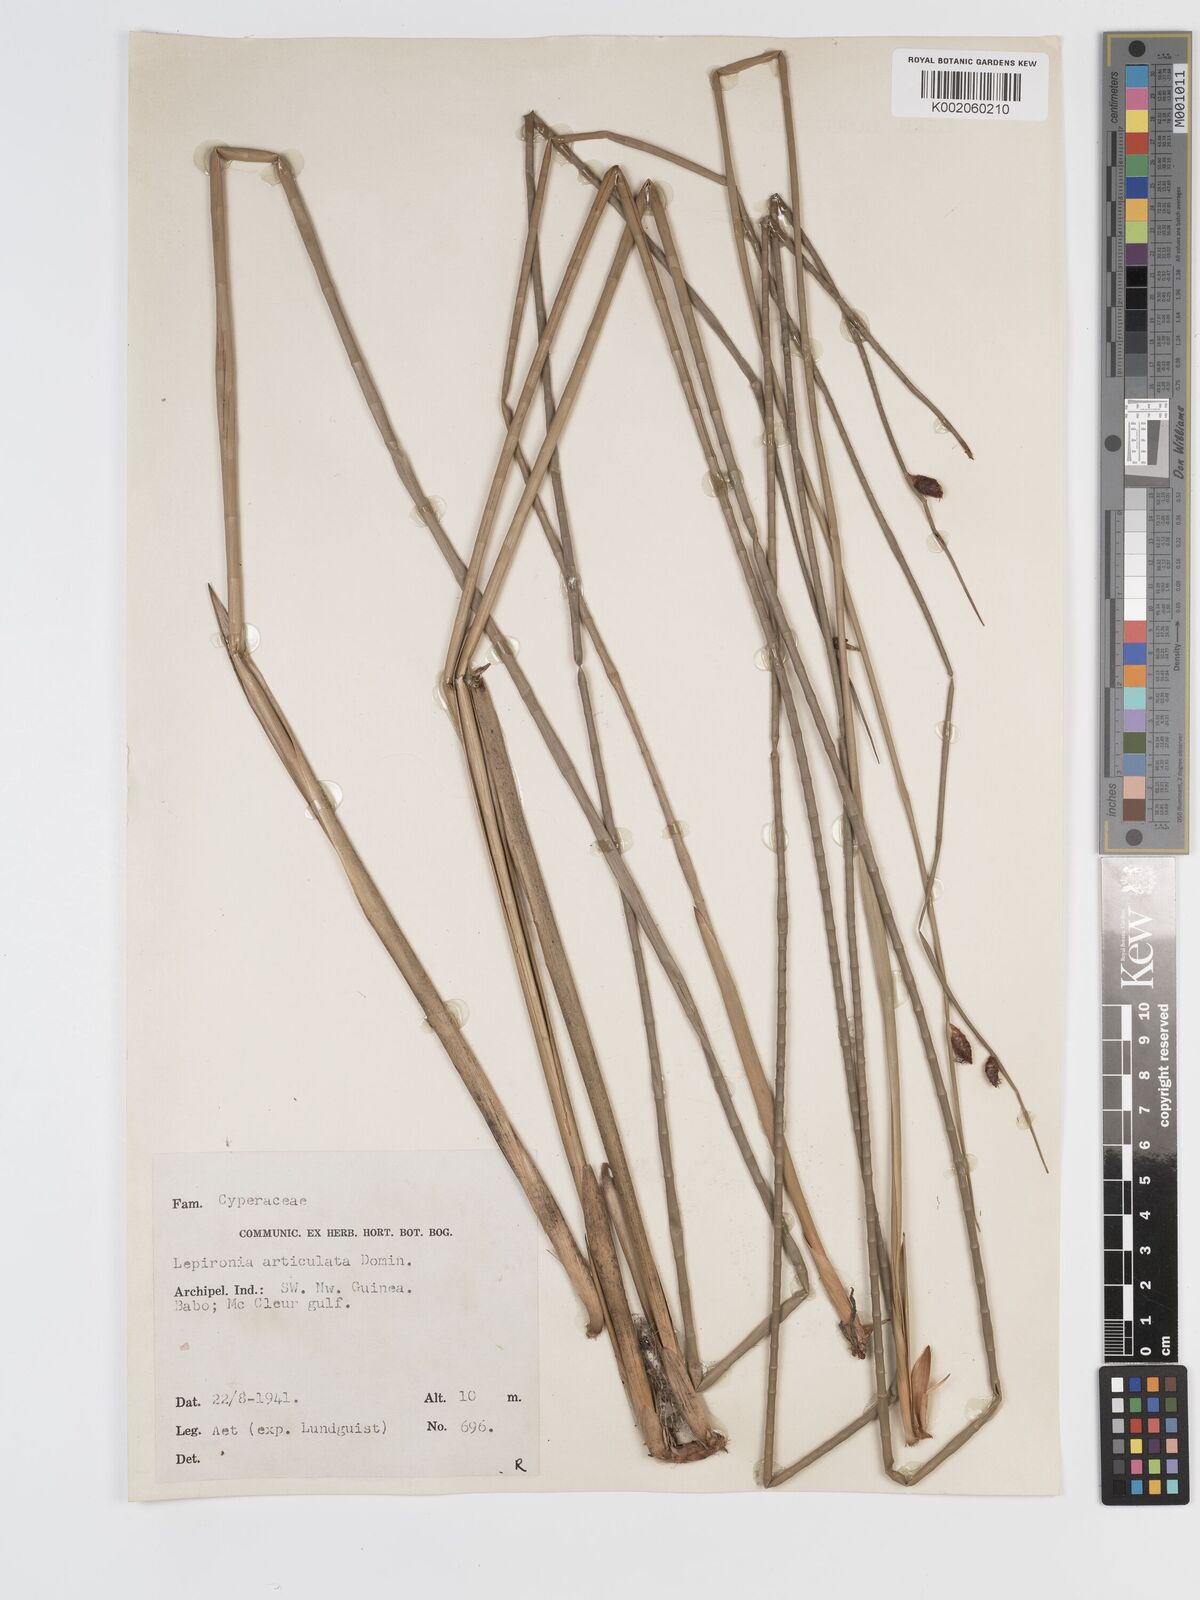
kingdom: Plantae
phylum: Tracheophyta
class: Liliopsida
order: Poales
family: Cyperaceae
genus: Lepironia
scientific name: Lepironia articulata
